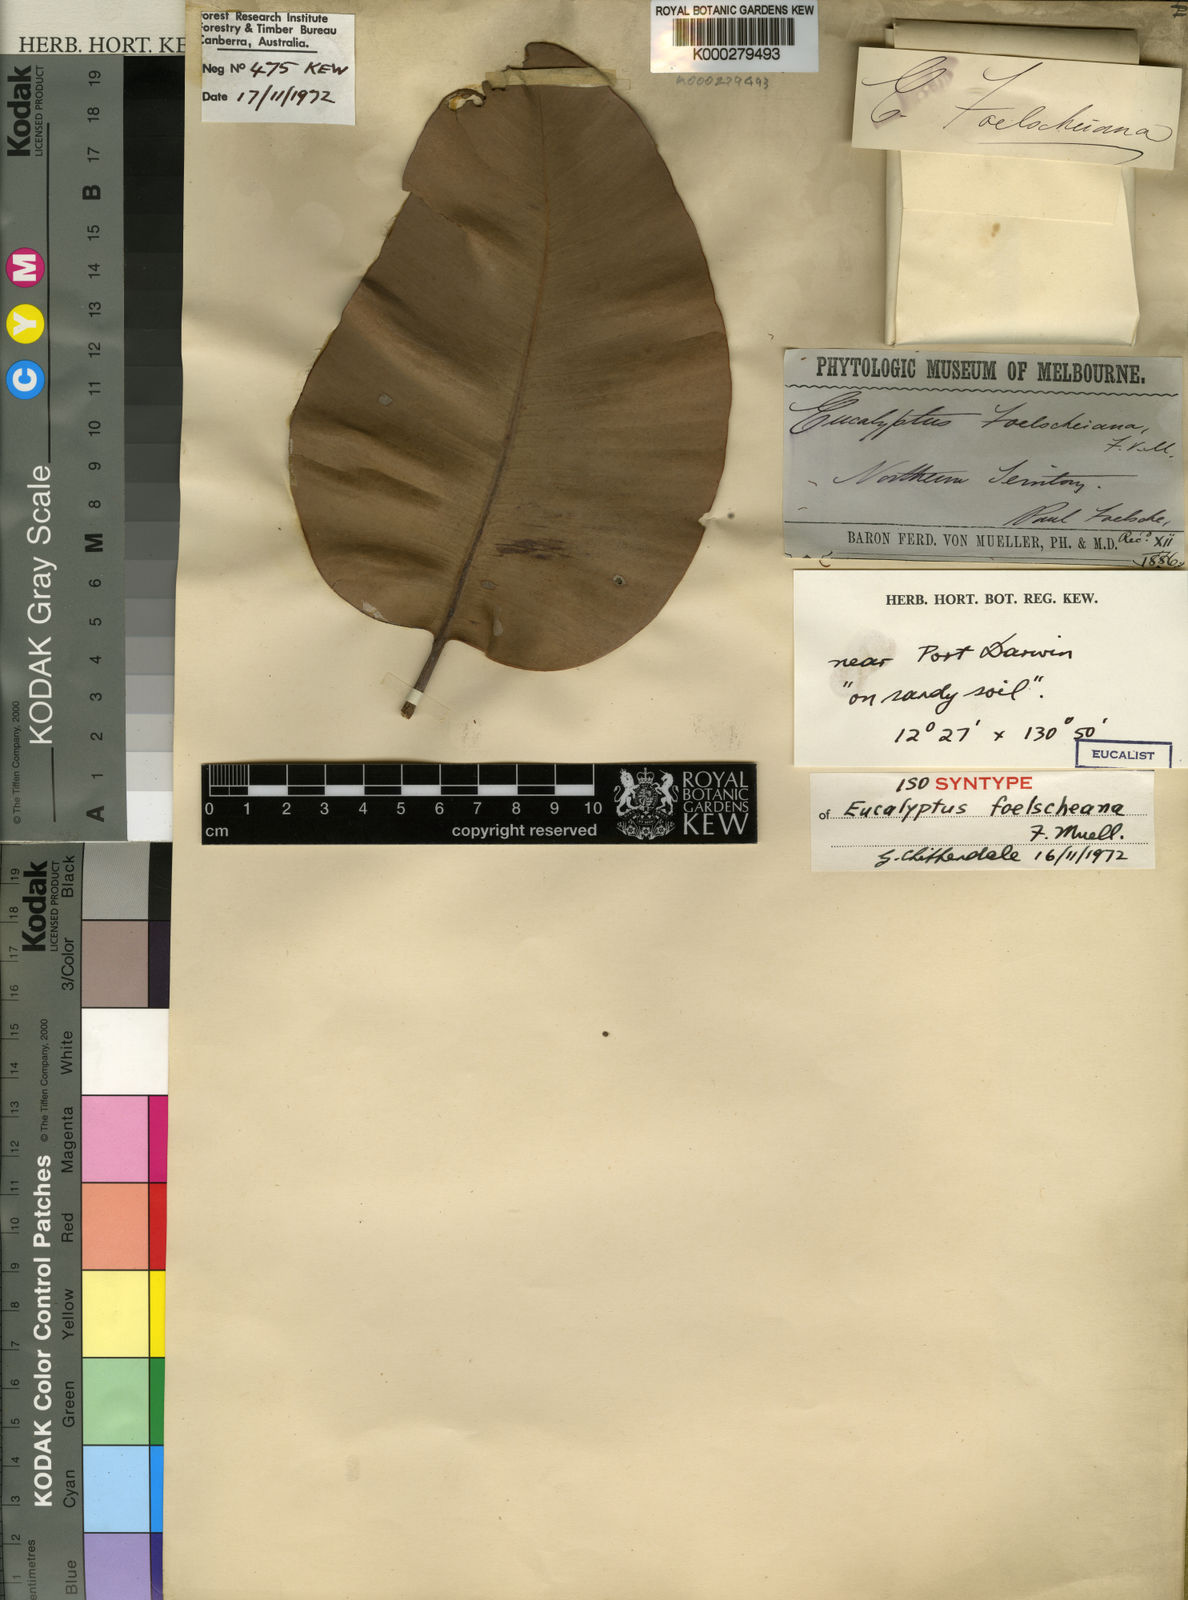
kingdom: Plantae
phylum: Tracheophyta
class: Magnoliopsida
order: Myrtales
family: Myrtaceae
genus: Corymbia
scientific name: Corymbia foelscheana
